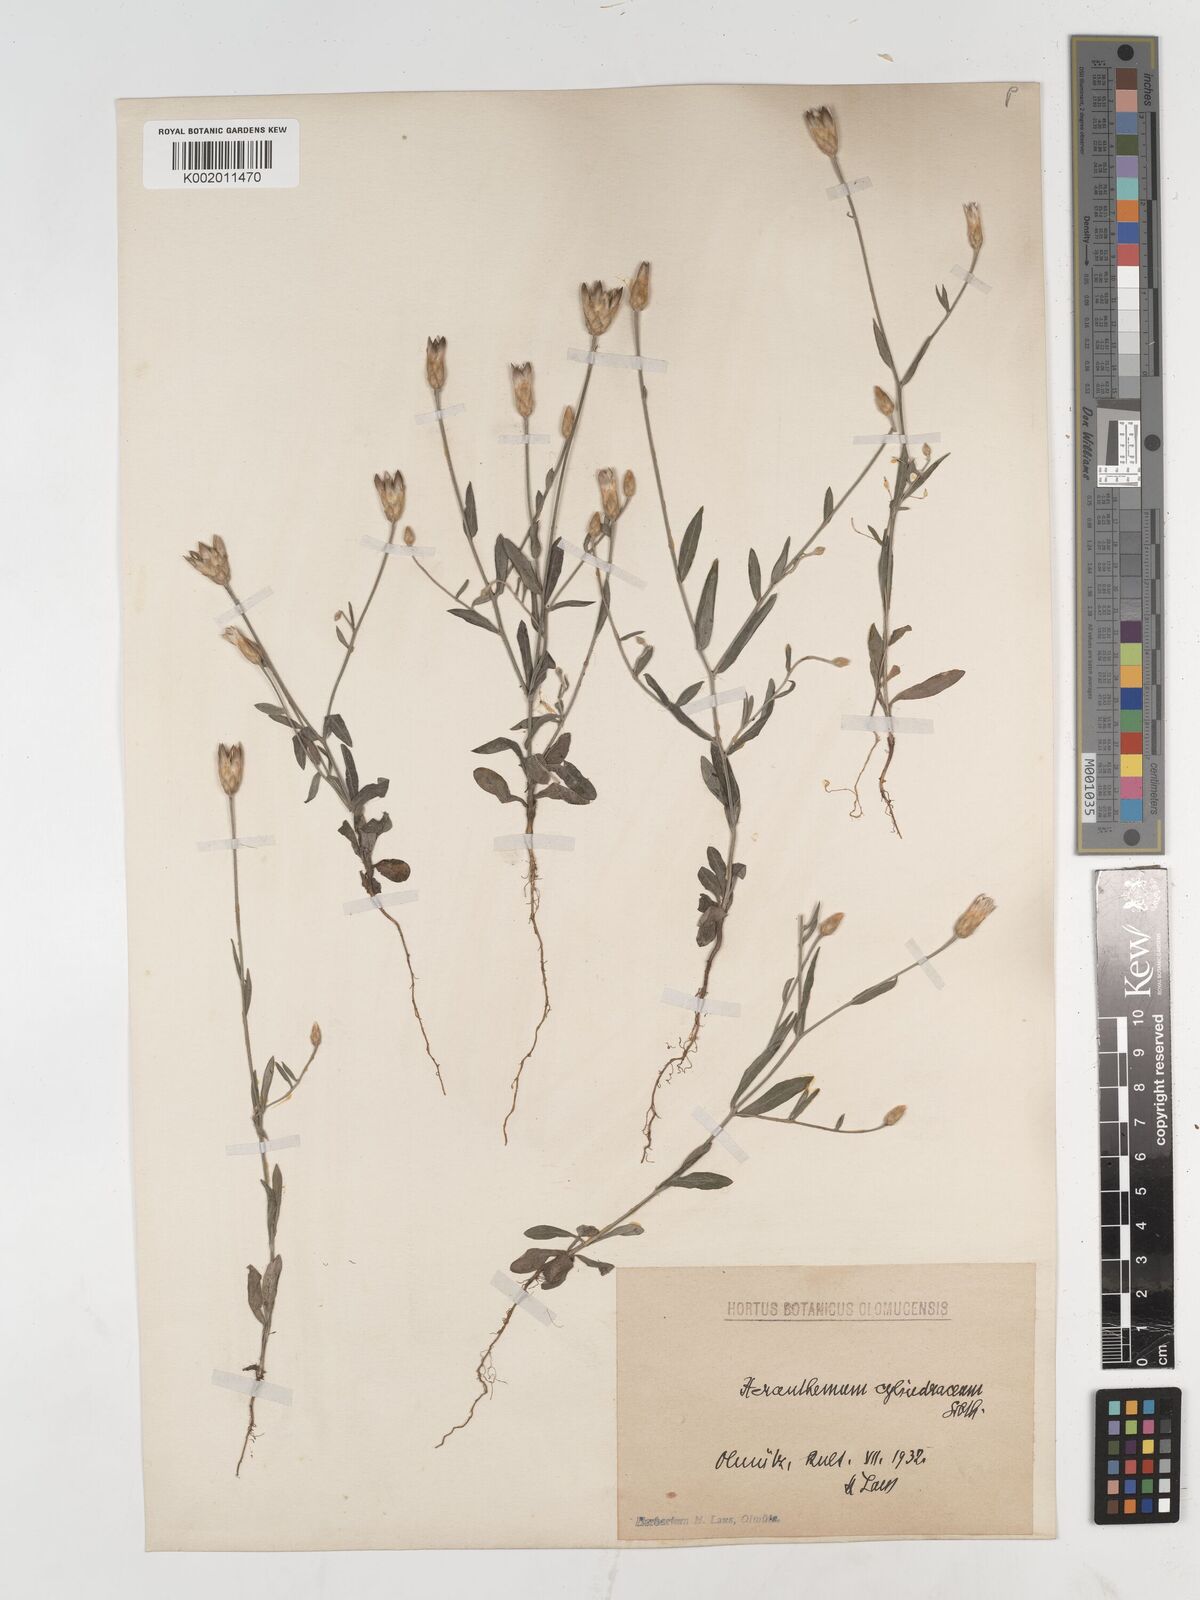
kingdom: Plantae
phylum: Tracheophyta
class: Magnoliopsida
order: Asterales
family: Asteraceae
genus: Xeranthemum
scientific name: Xeranthemum
